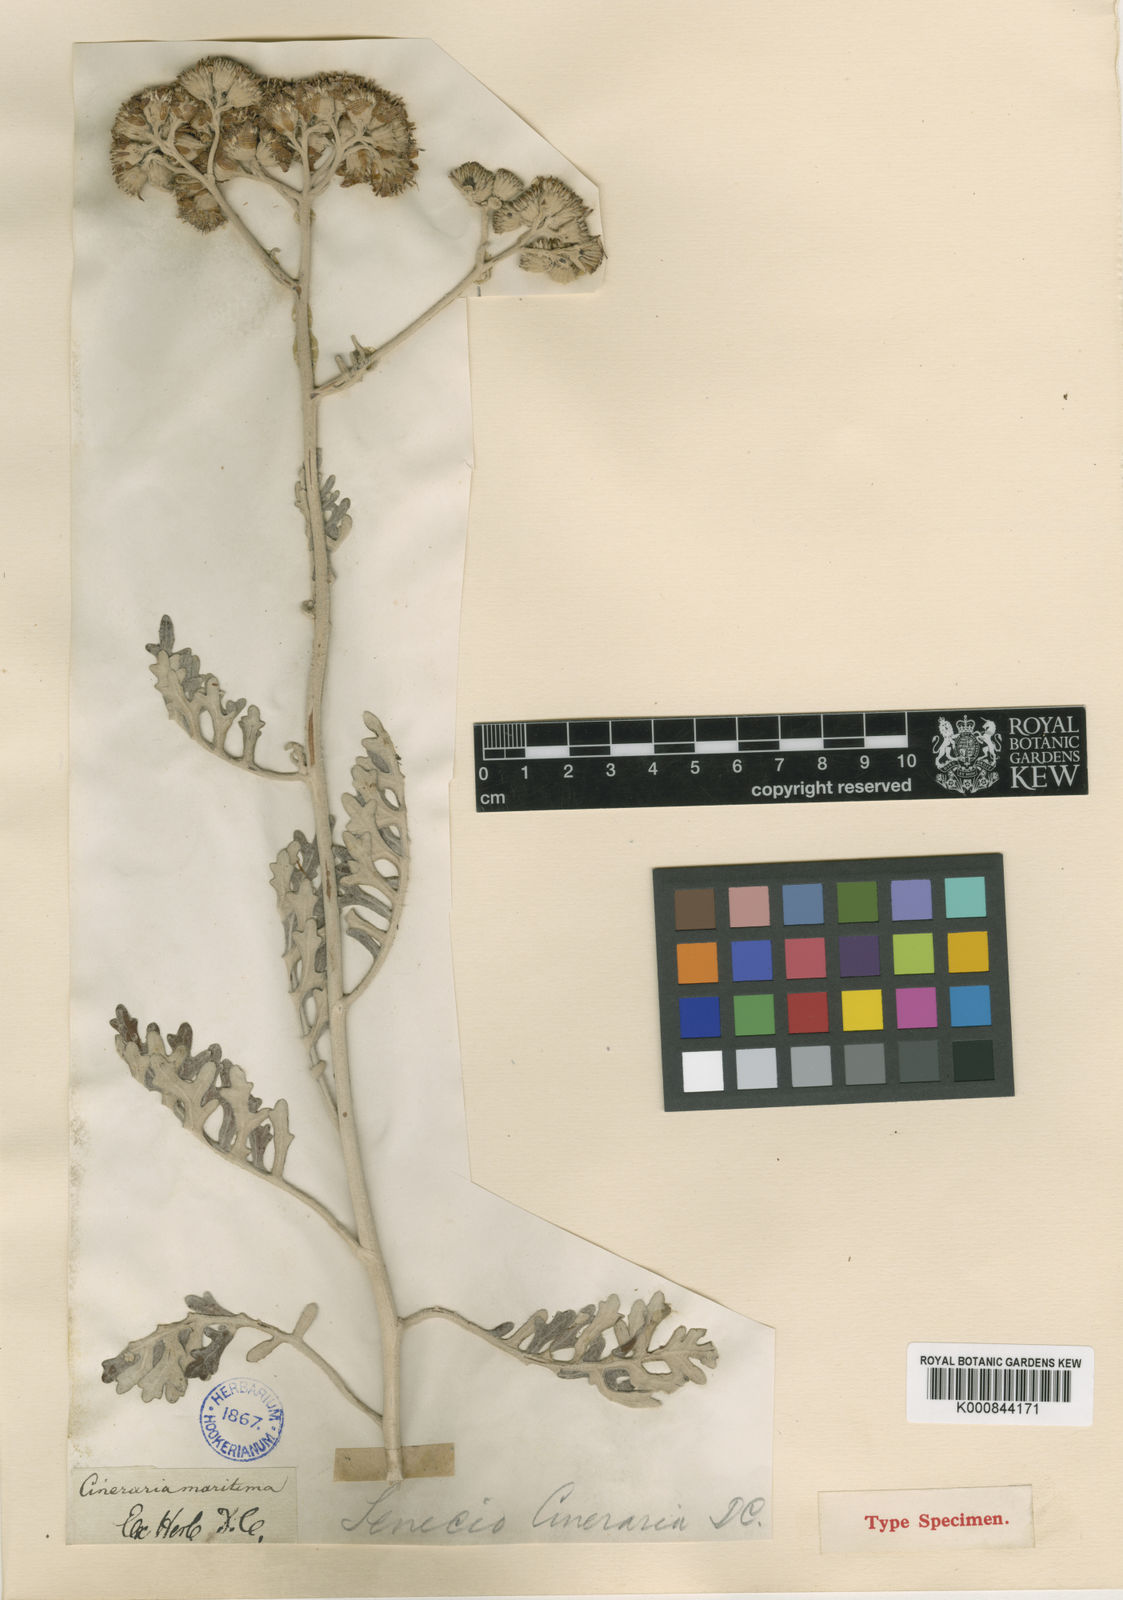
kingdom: Plantae
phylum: Tracheophyta
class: Magnoliopsida
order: Asterales
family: Asteraceae
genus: Jacobaea
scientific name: Jacobaea maritima
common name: Silver ragwort
